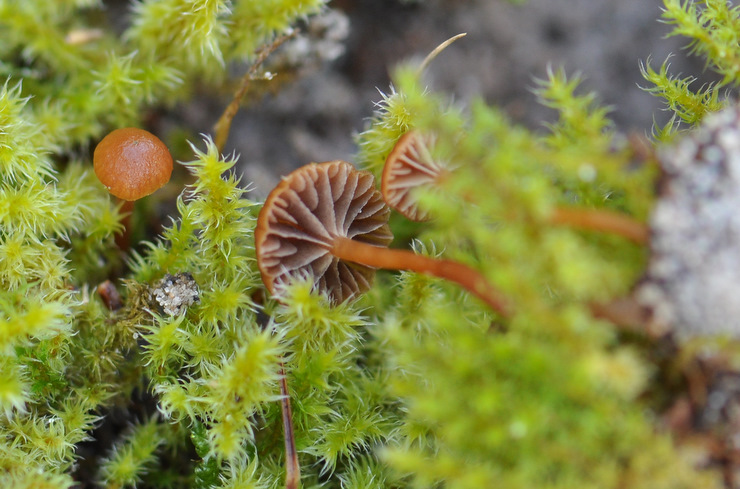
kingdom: Fungi
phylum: Basidiomycota
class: Agaricomycetes
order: Agaricales
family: Strophariaceae
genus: Deconica
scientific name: Deconica montana
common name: rødbrun stråhat
